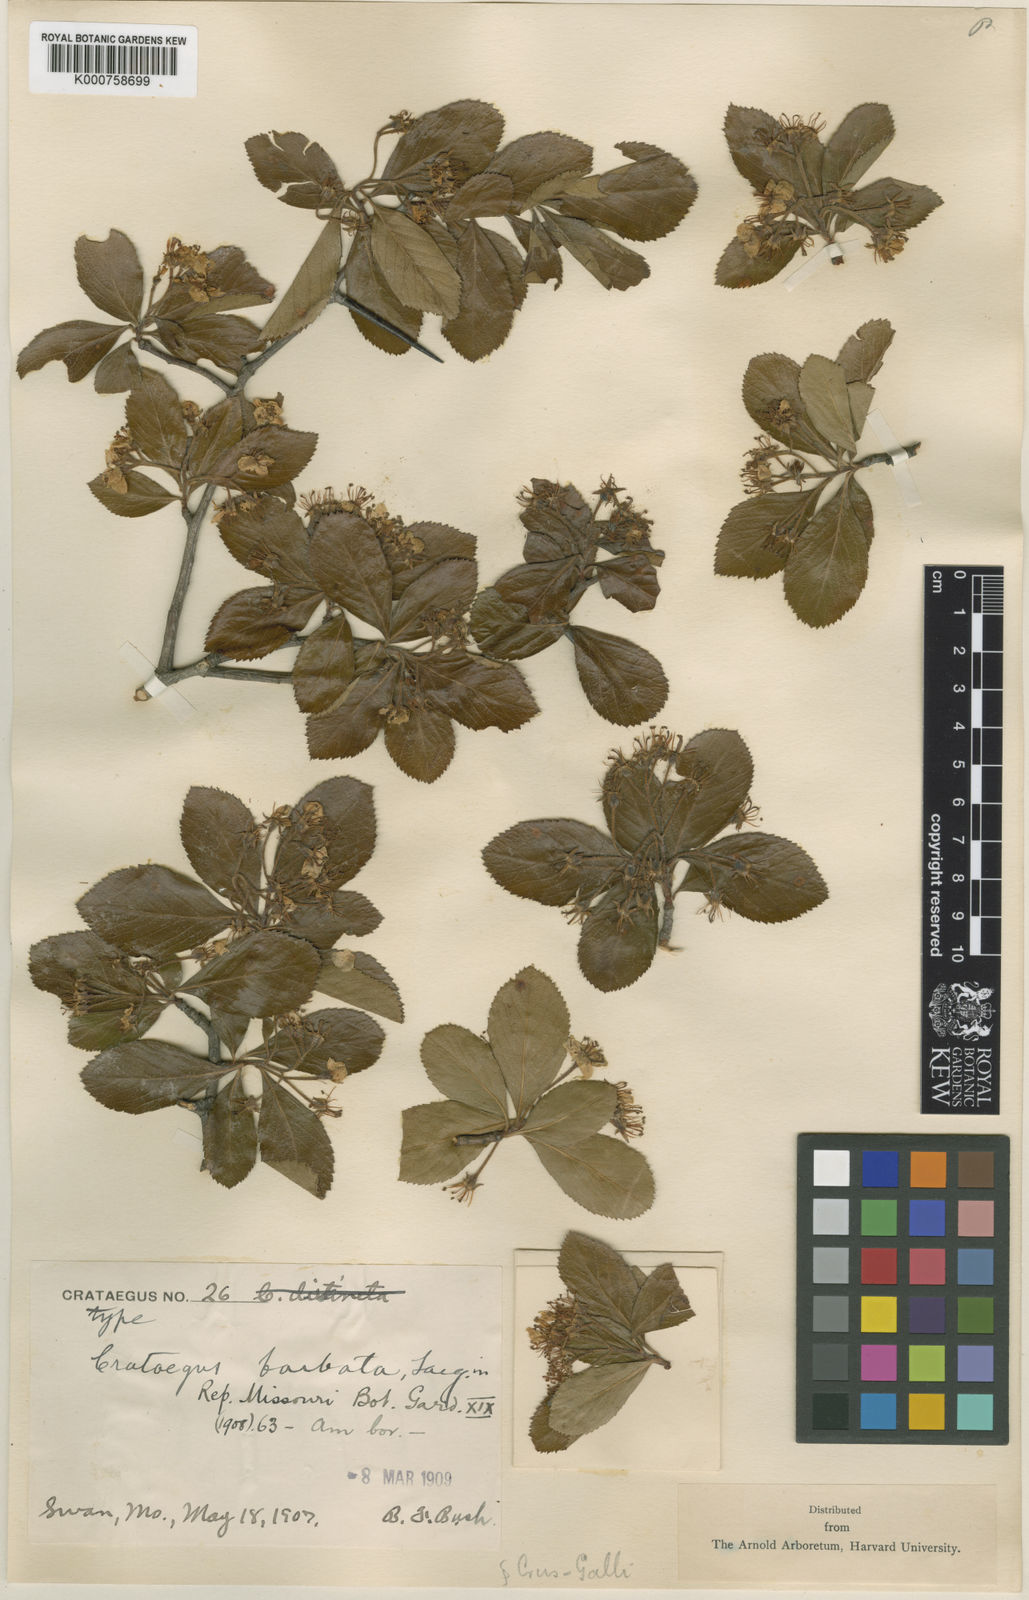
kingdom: Plantae
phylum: Tracheophyta
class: Magnoliopsida
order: Rosales
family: Rosaceae
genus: Crataegus
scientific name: Crataegus
